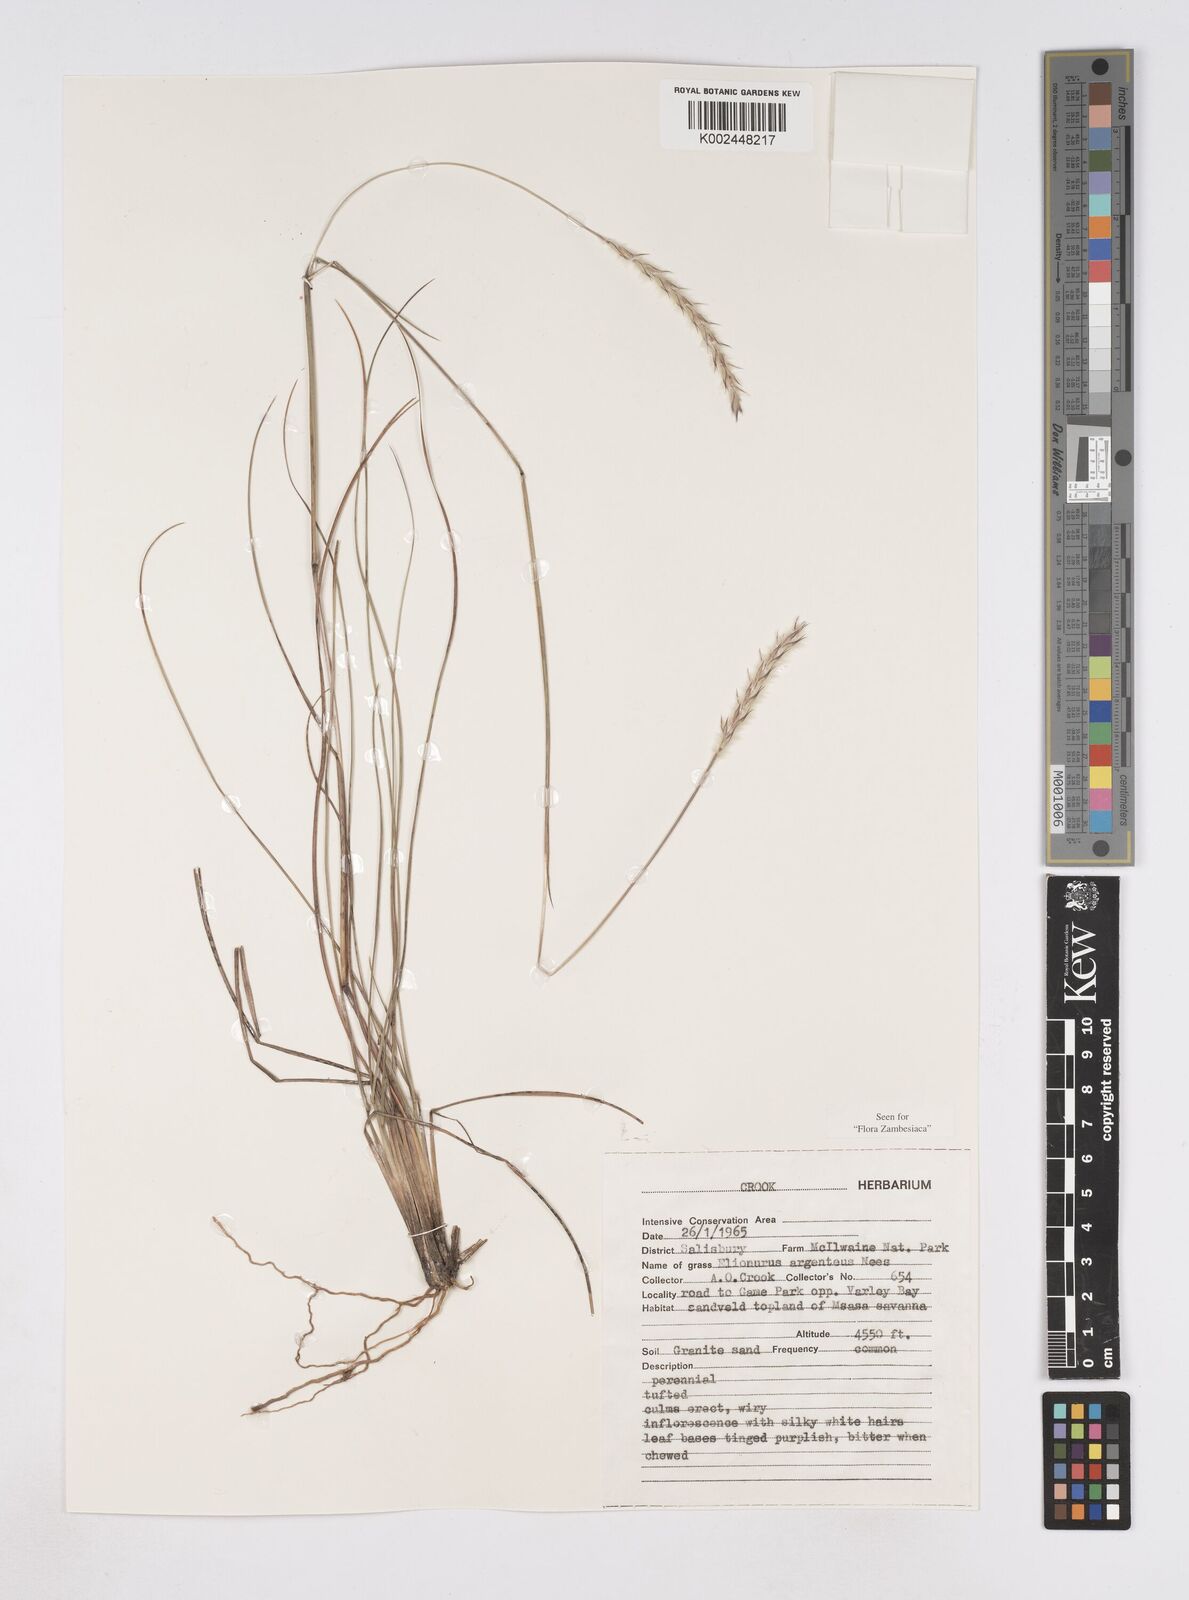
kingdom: Plantae
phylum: Tracheophyta
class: Liliopsida
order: Poales
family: Poaceae
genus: Elionurus
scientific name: Elionurus muticus
